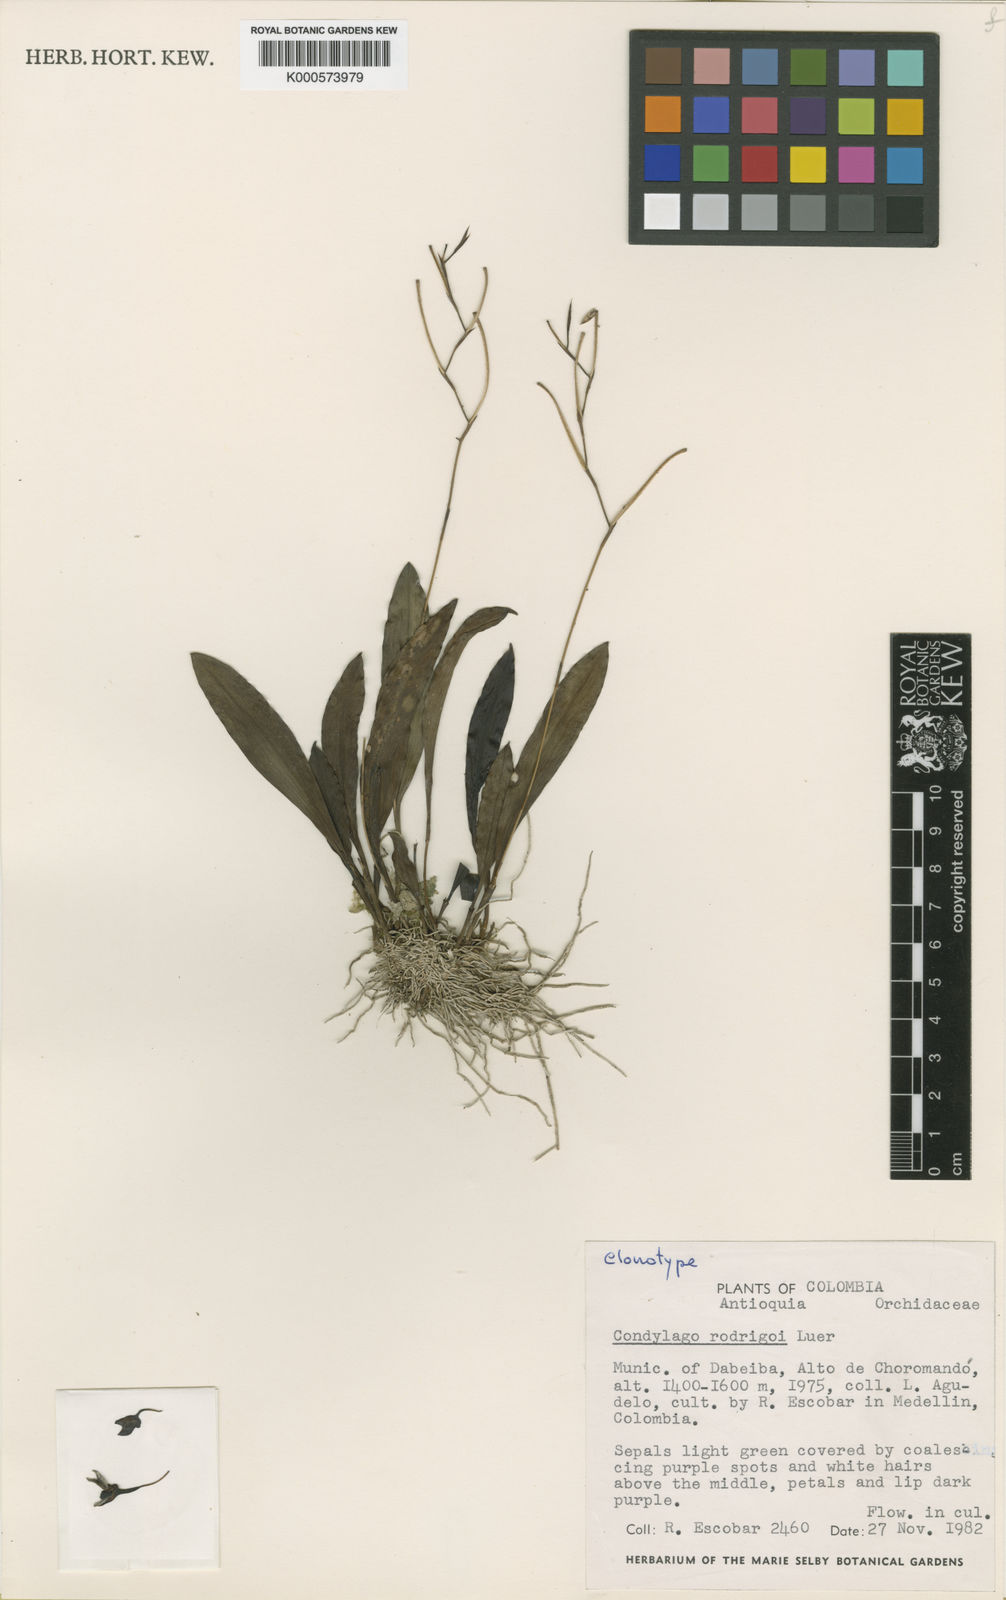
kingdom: Plantae
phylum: Tracheophyta
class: Liliopsida
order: Asparagales
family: Orchidaceae
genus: Stelis
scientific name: Stelis rodrigoi
